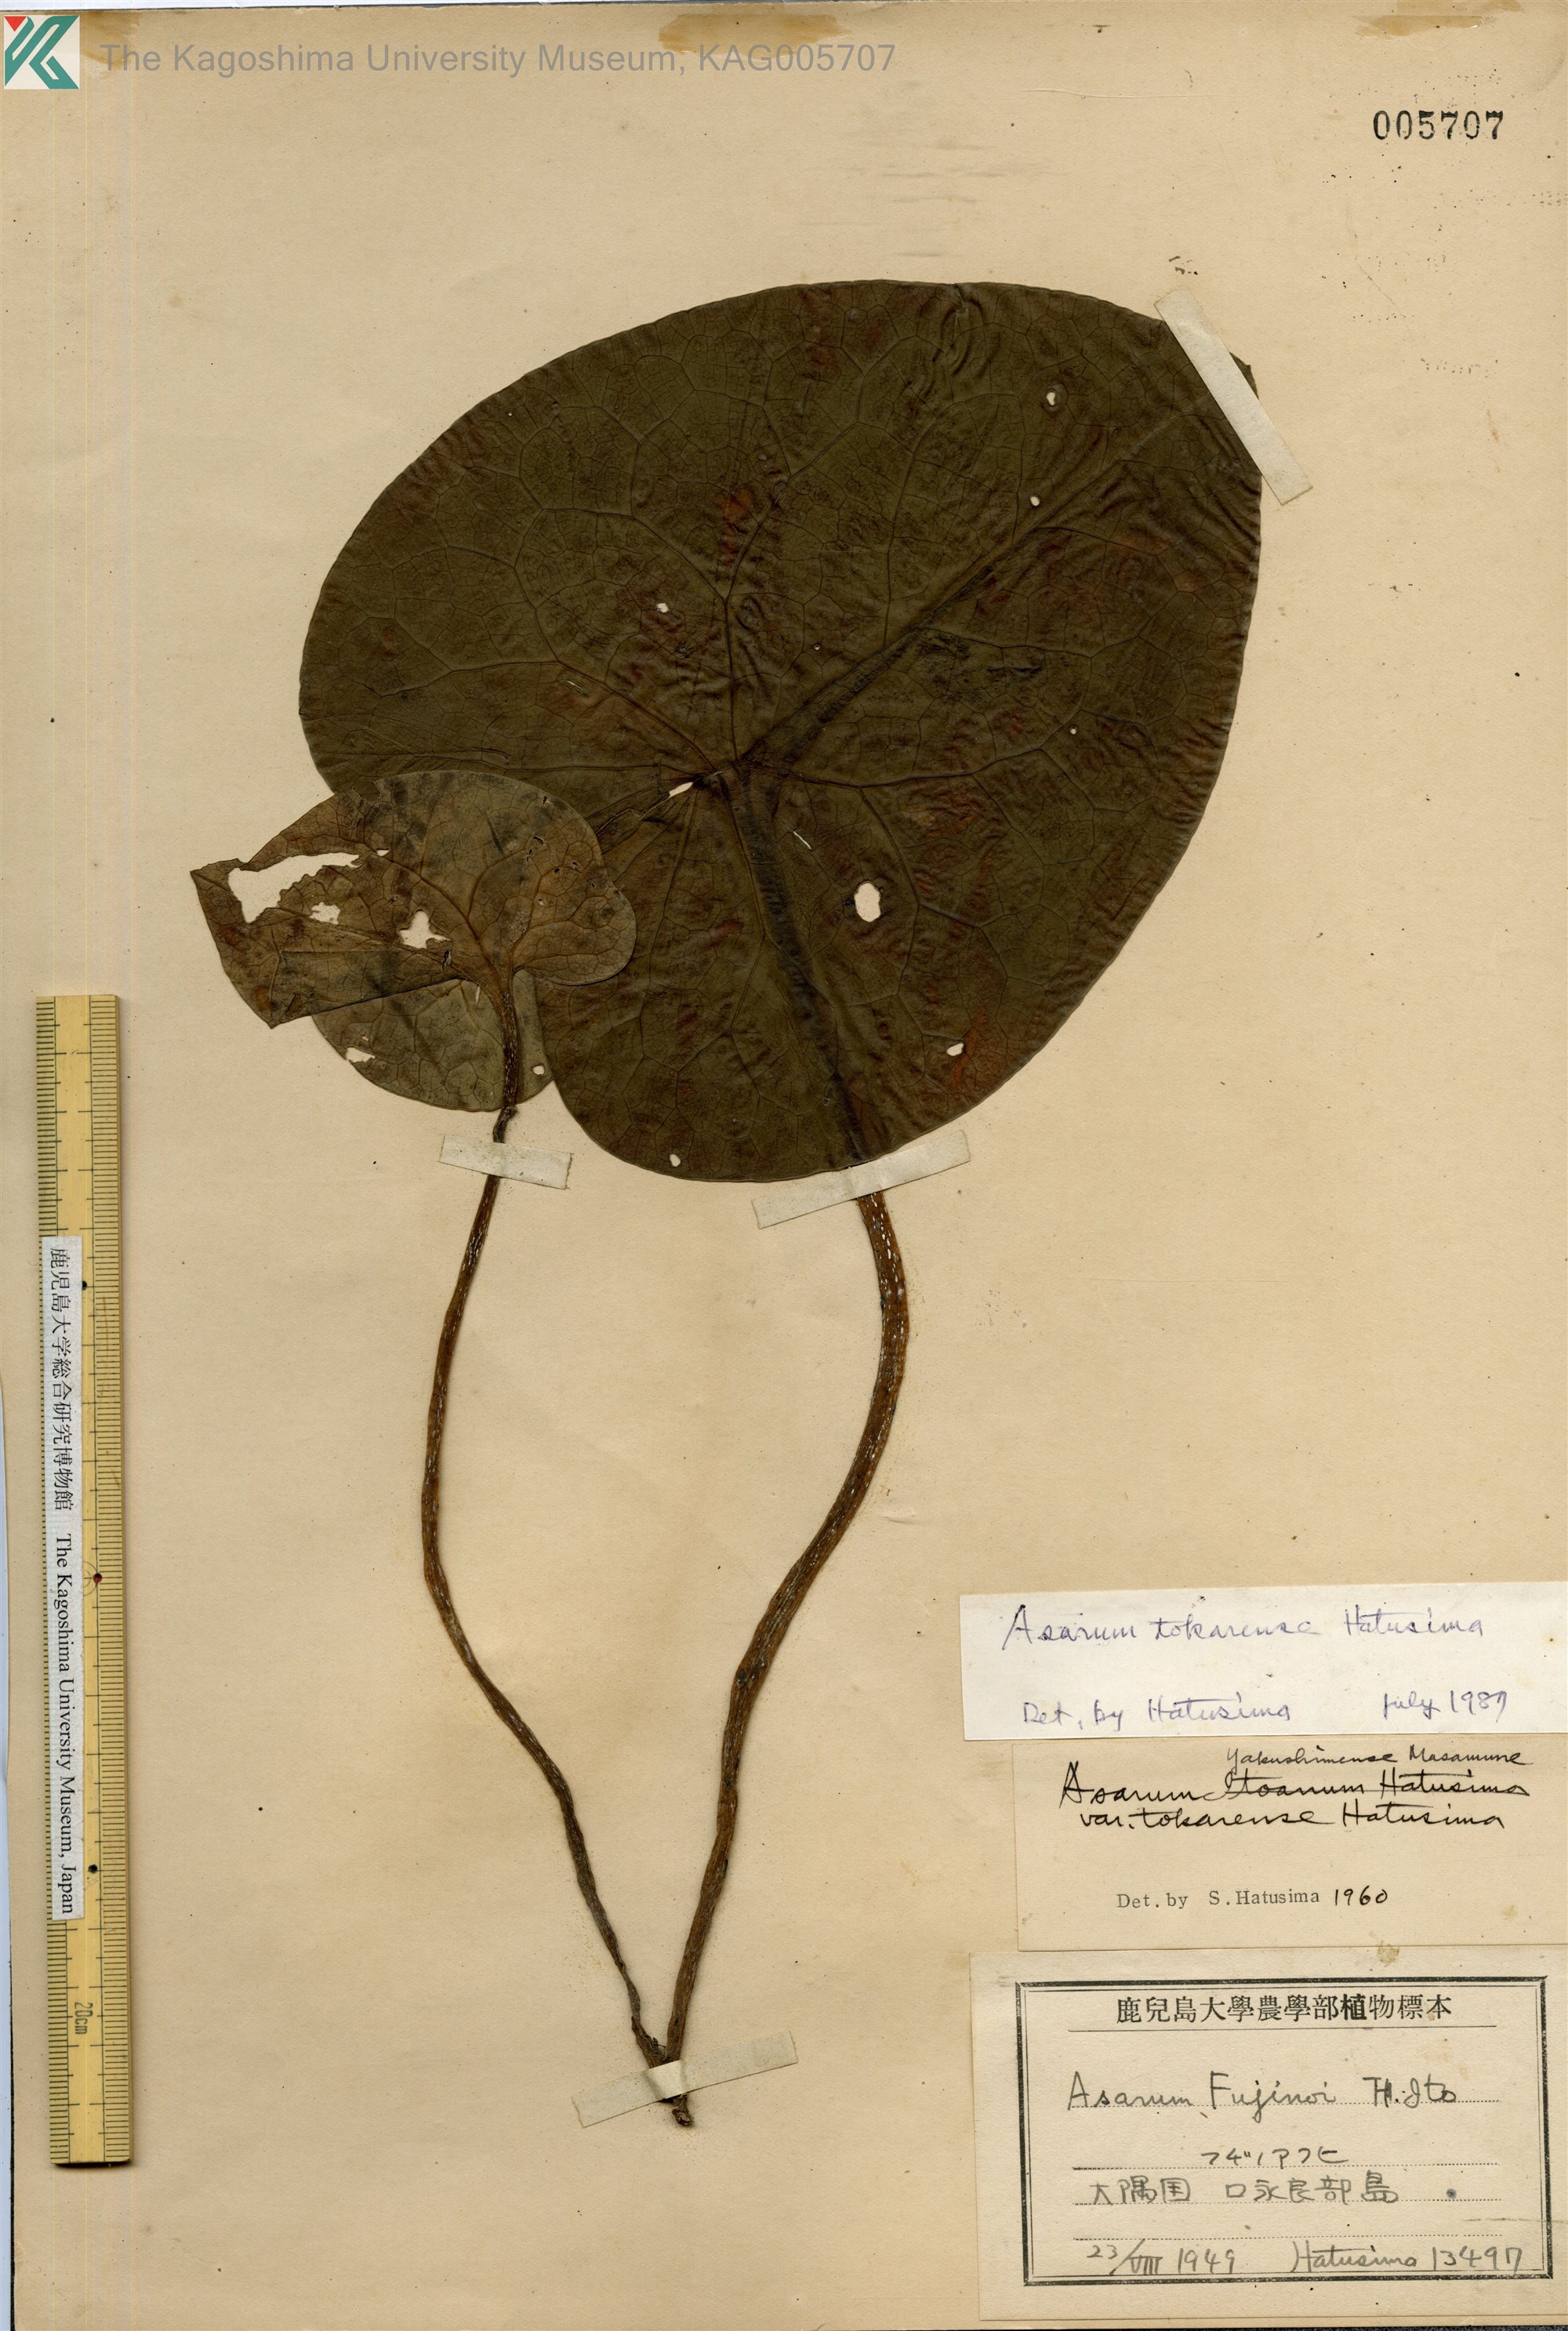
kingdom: Plantae
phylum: Tracheophyta
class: Magnoliopsida
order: Piperales
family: Aristolochiaceae
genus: Asarum
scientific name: Asarum tokarense
